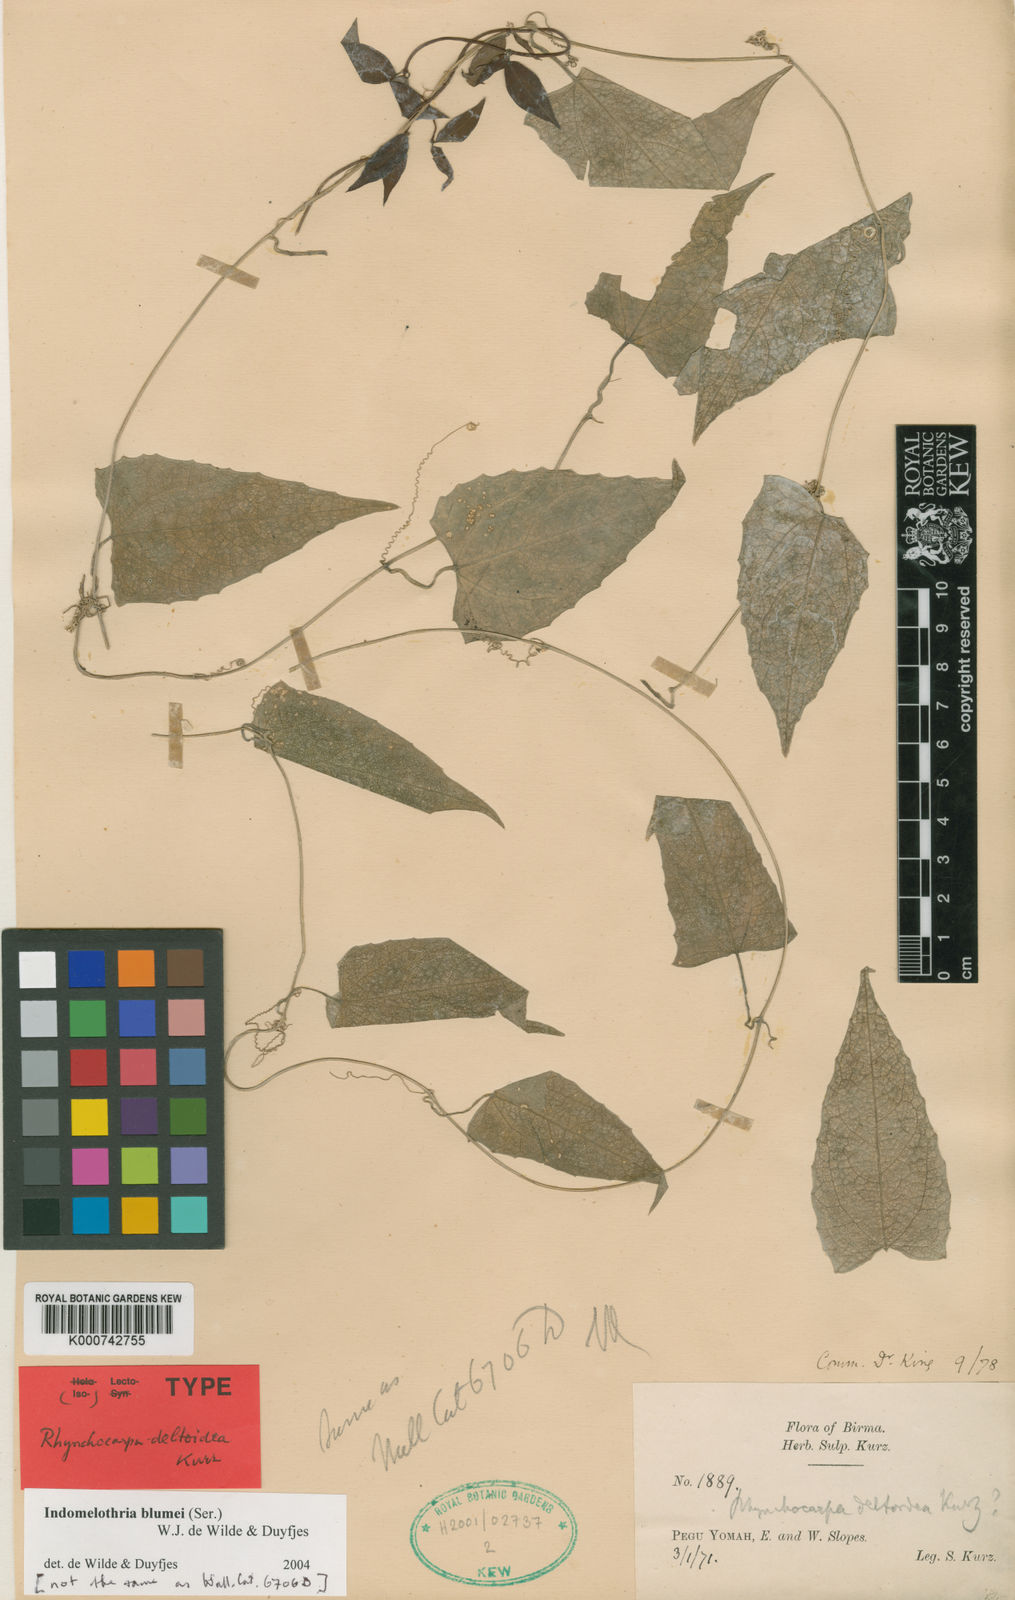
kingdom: Plantae
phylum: Tracheophyta
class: Magnoliopsida
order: Cucurbitales
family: Cucurbitaceae
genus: Indomelothria
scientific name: Indomelothria blumei
